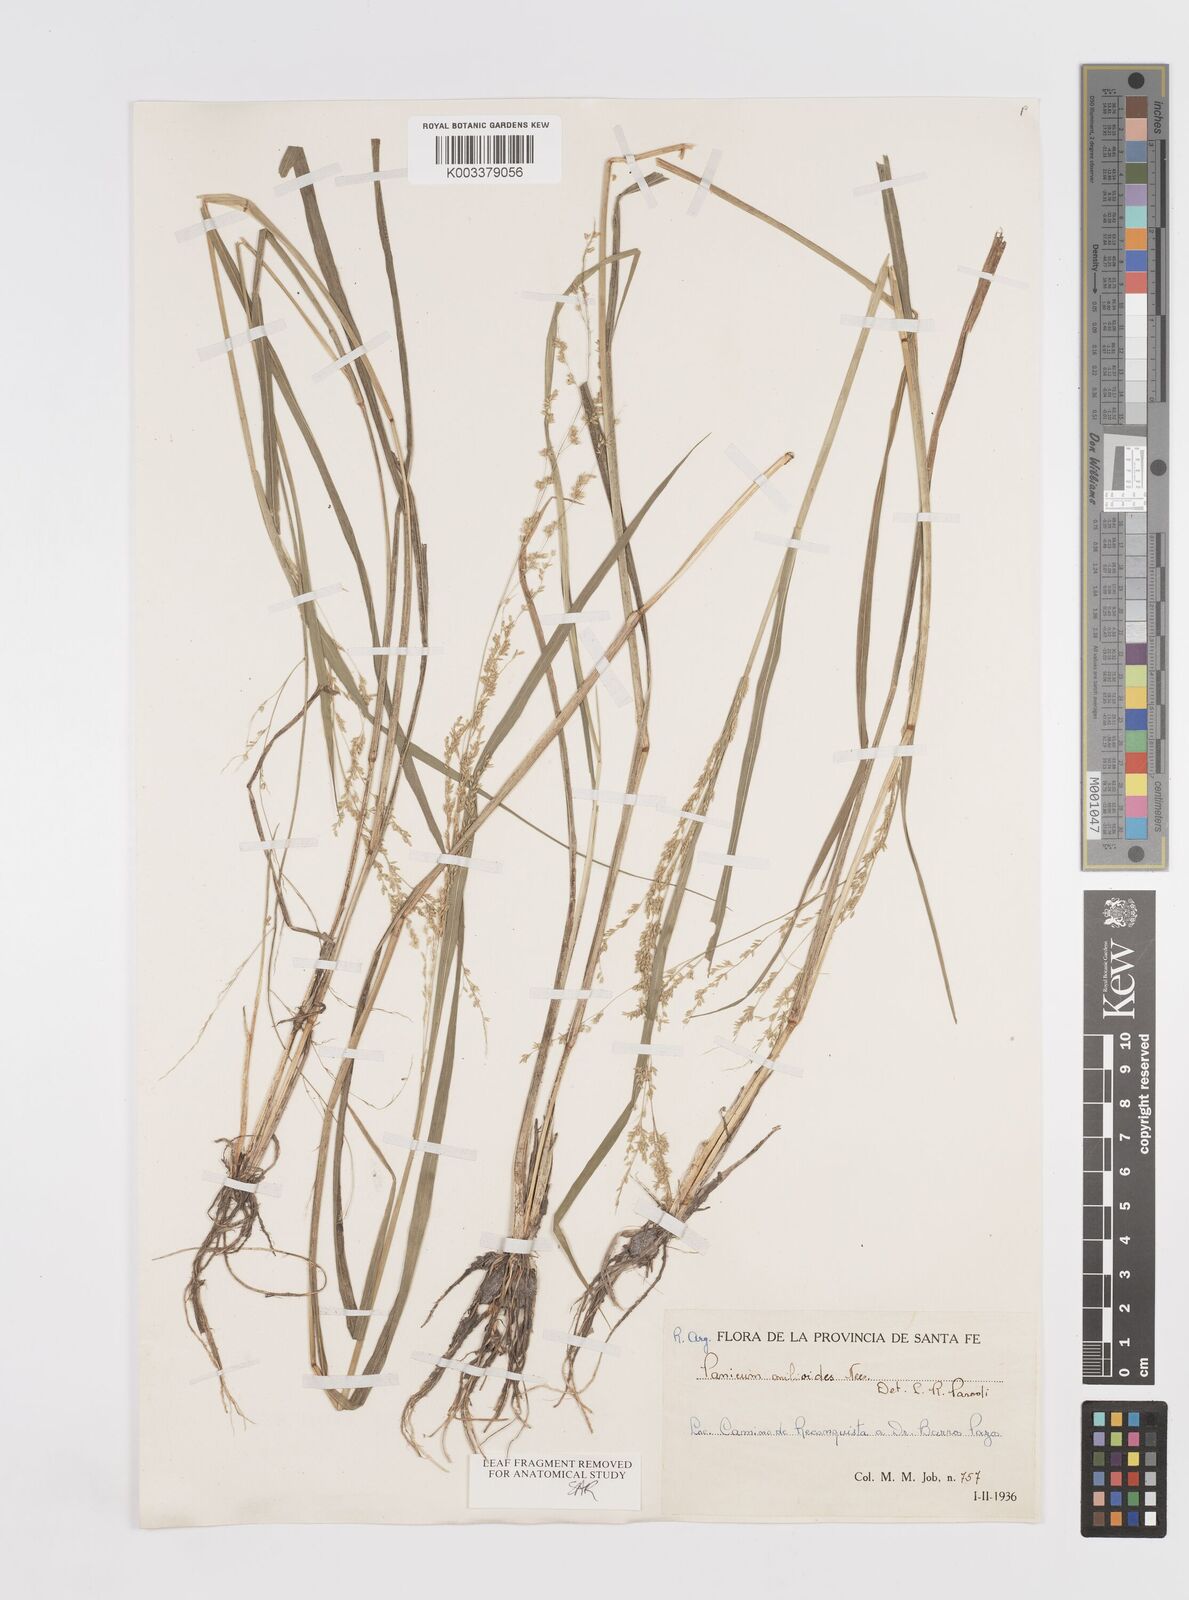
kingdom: Plantae
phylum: Tracheophyta
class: Liliopsida
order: Poales
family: Poaceae
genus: Steinchisma
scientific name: Steinchisma hians
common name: Gaping panic grass
